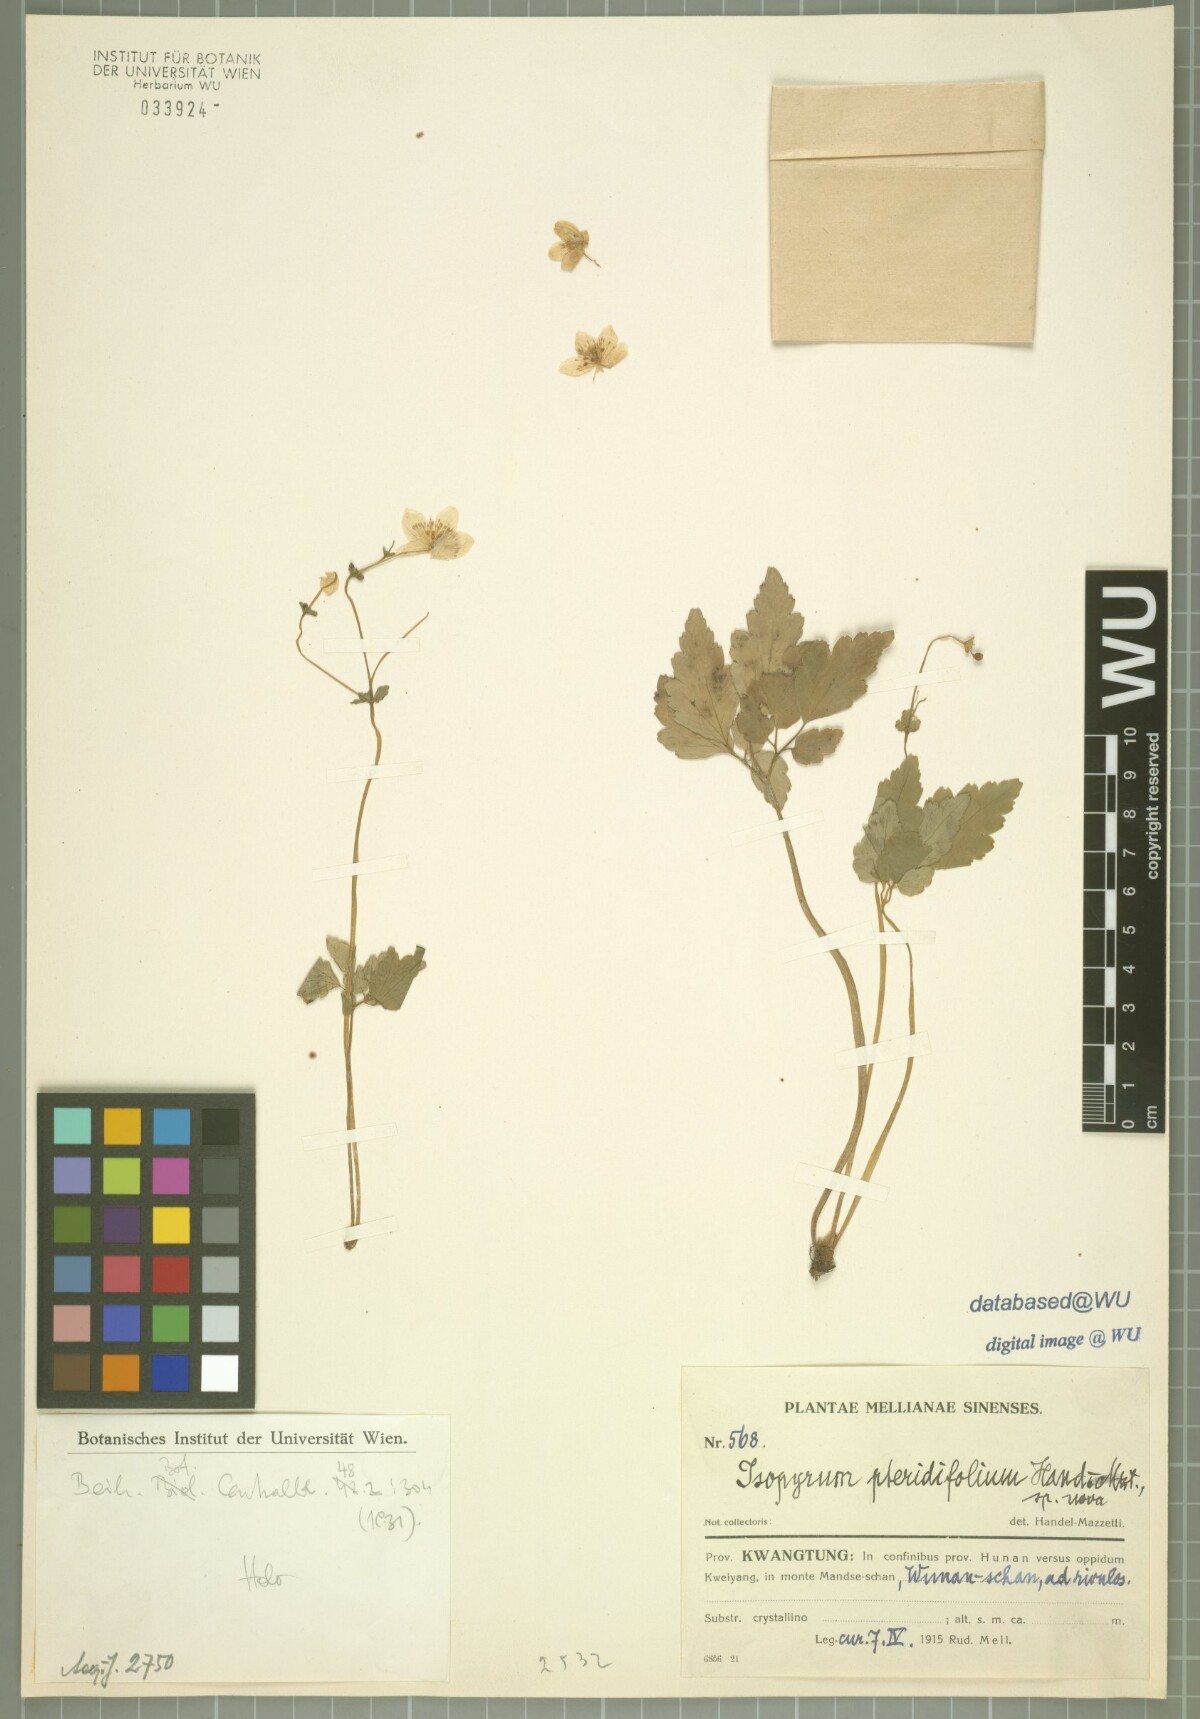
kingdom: Plantae
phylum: Tracheophyta
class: Magnoliopsida
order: Ranunculales
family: Ranunculaceae
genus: Dichocarpum
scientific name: Dichocarpum dalzielii
